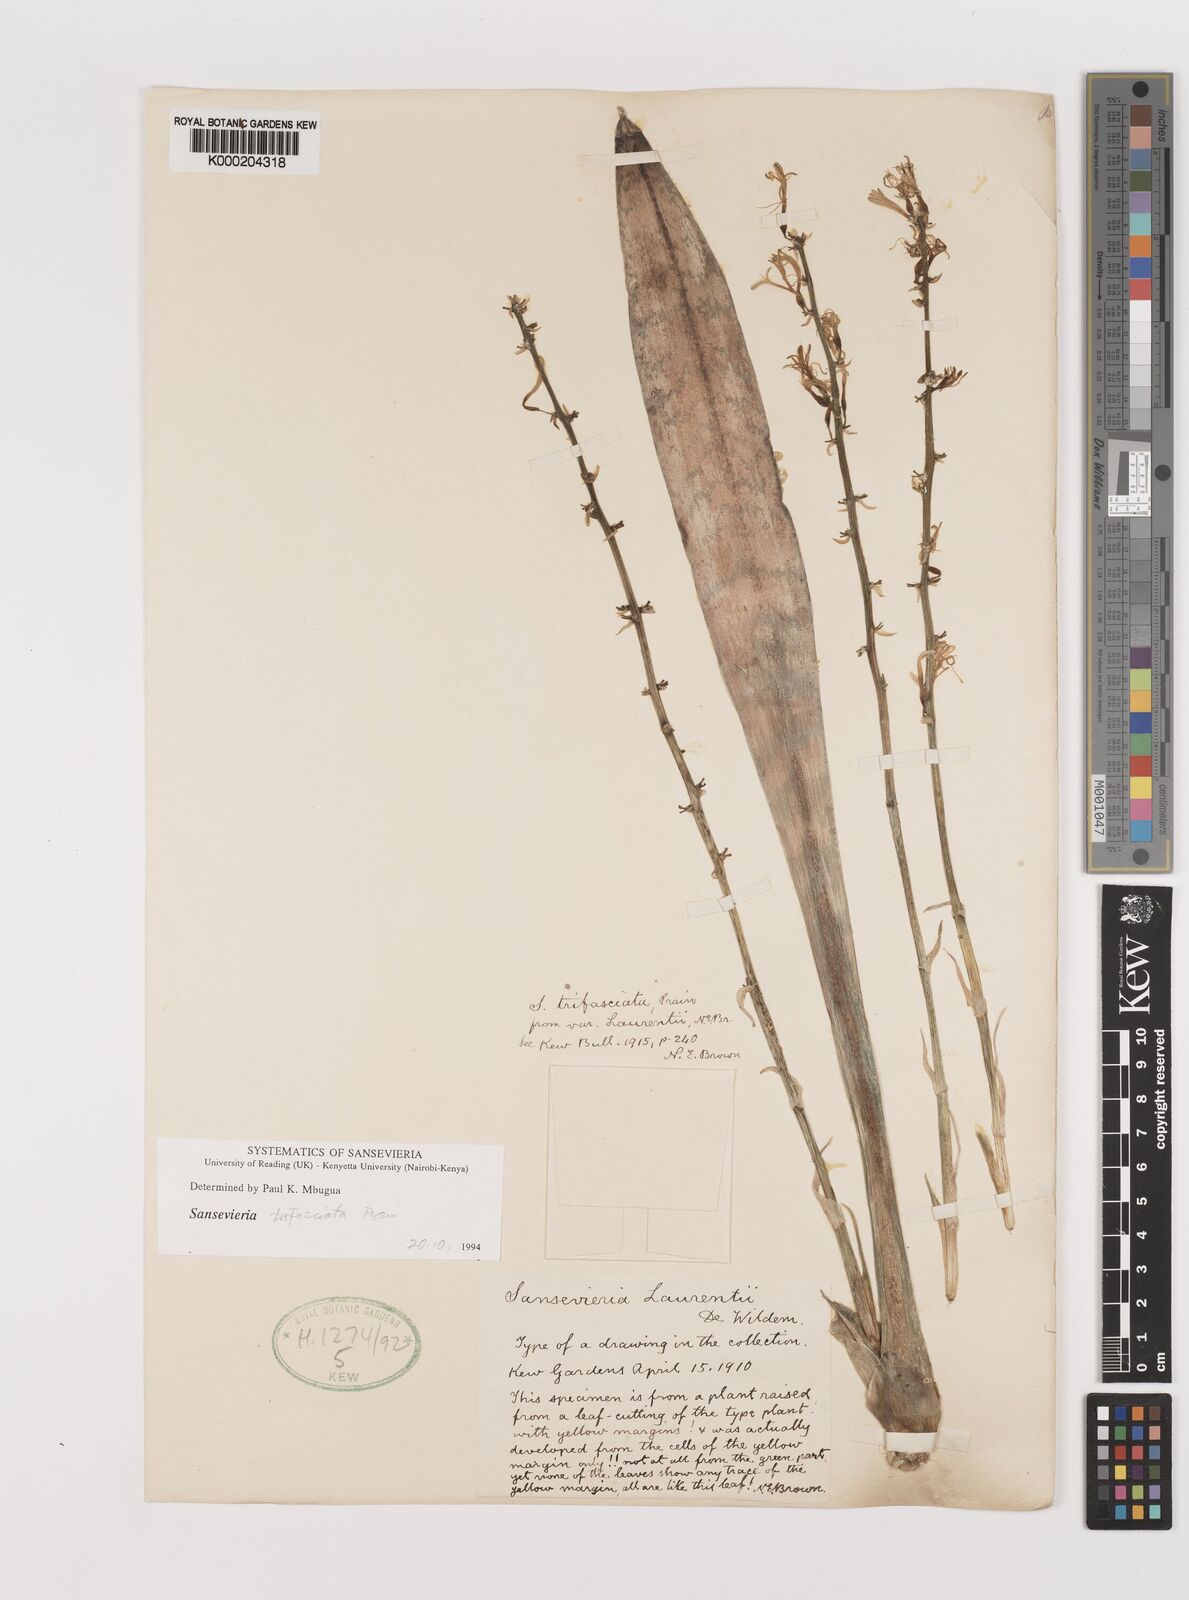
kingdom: Plantae
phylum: Tracheophyta
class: Liliopsida
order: Asparagales
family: Asparagaceae
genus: Dracaena
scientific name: Dracaena trifasciata
